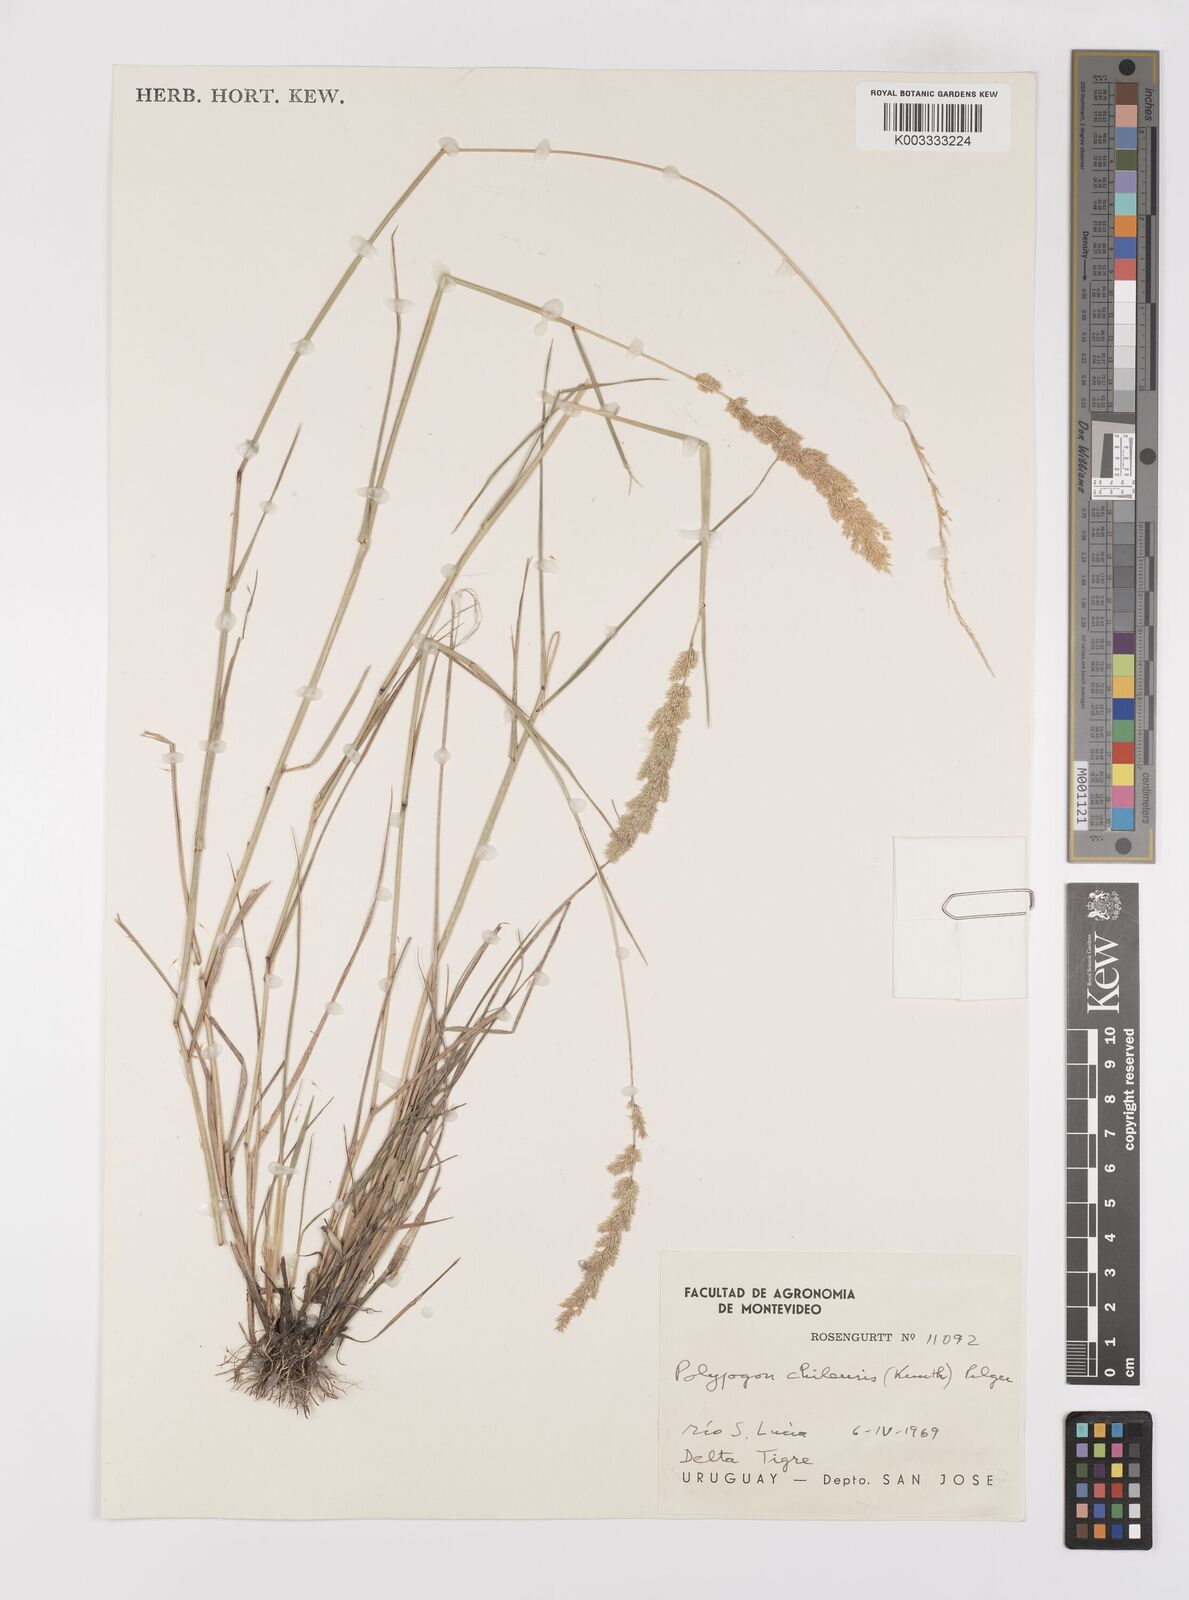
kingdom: Plantae
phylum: Tracheophyta
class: Liliopsida
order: Poales
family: Poaceae
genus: Polypogon
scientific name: Polypogon chilensis
